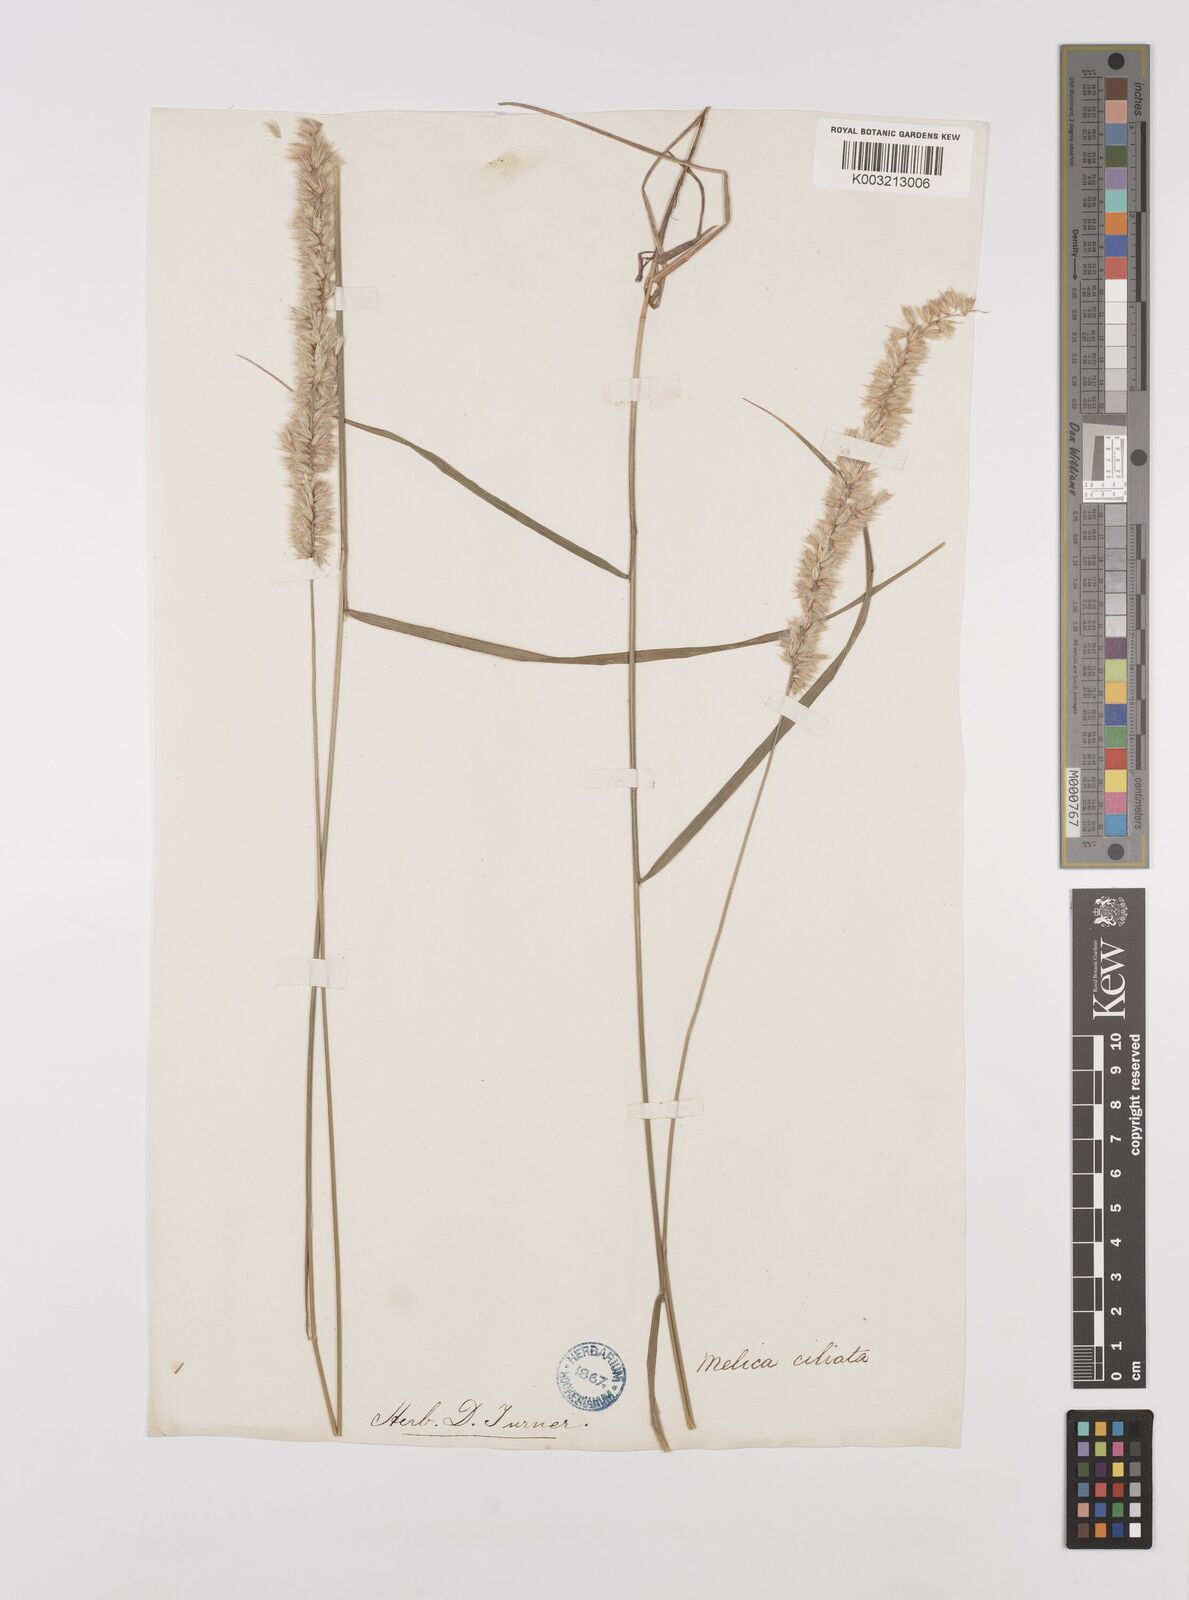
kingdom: Plantae
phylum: Tracheophyta
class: Liliopsida
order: Poales
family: Poaceae
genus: Melica
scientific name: Melica ciliata
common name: Hairy melicgrass
